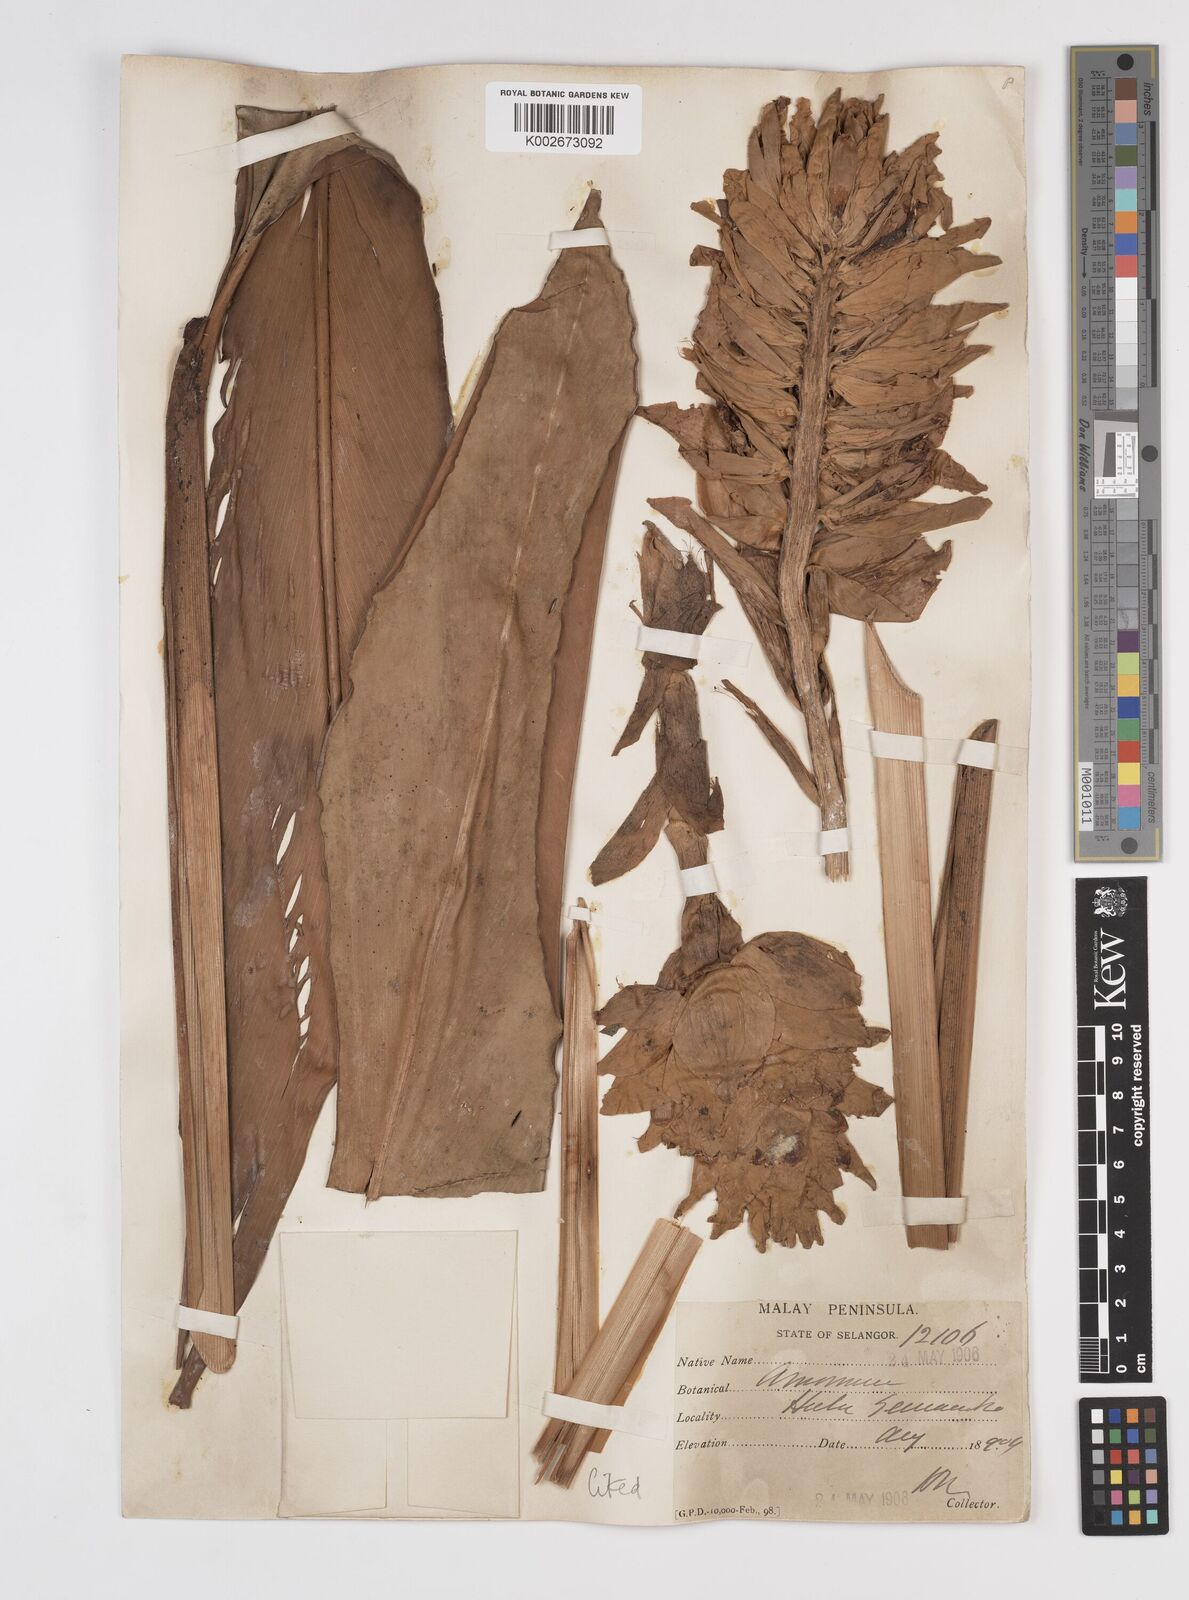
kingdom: Plantae
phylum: Tracheophyta
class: Liliopsida
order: Zingiberales
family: Zingiberaceae
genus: Conamomum
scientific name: Conamomum xanthophlebium
